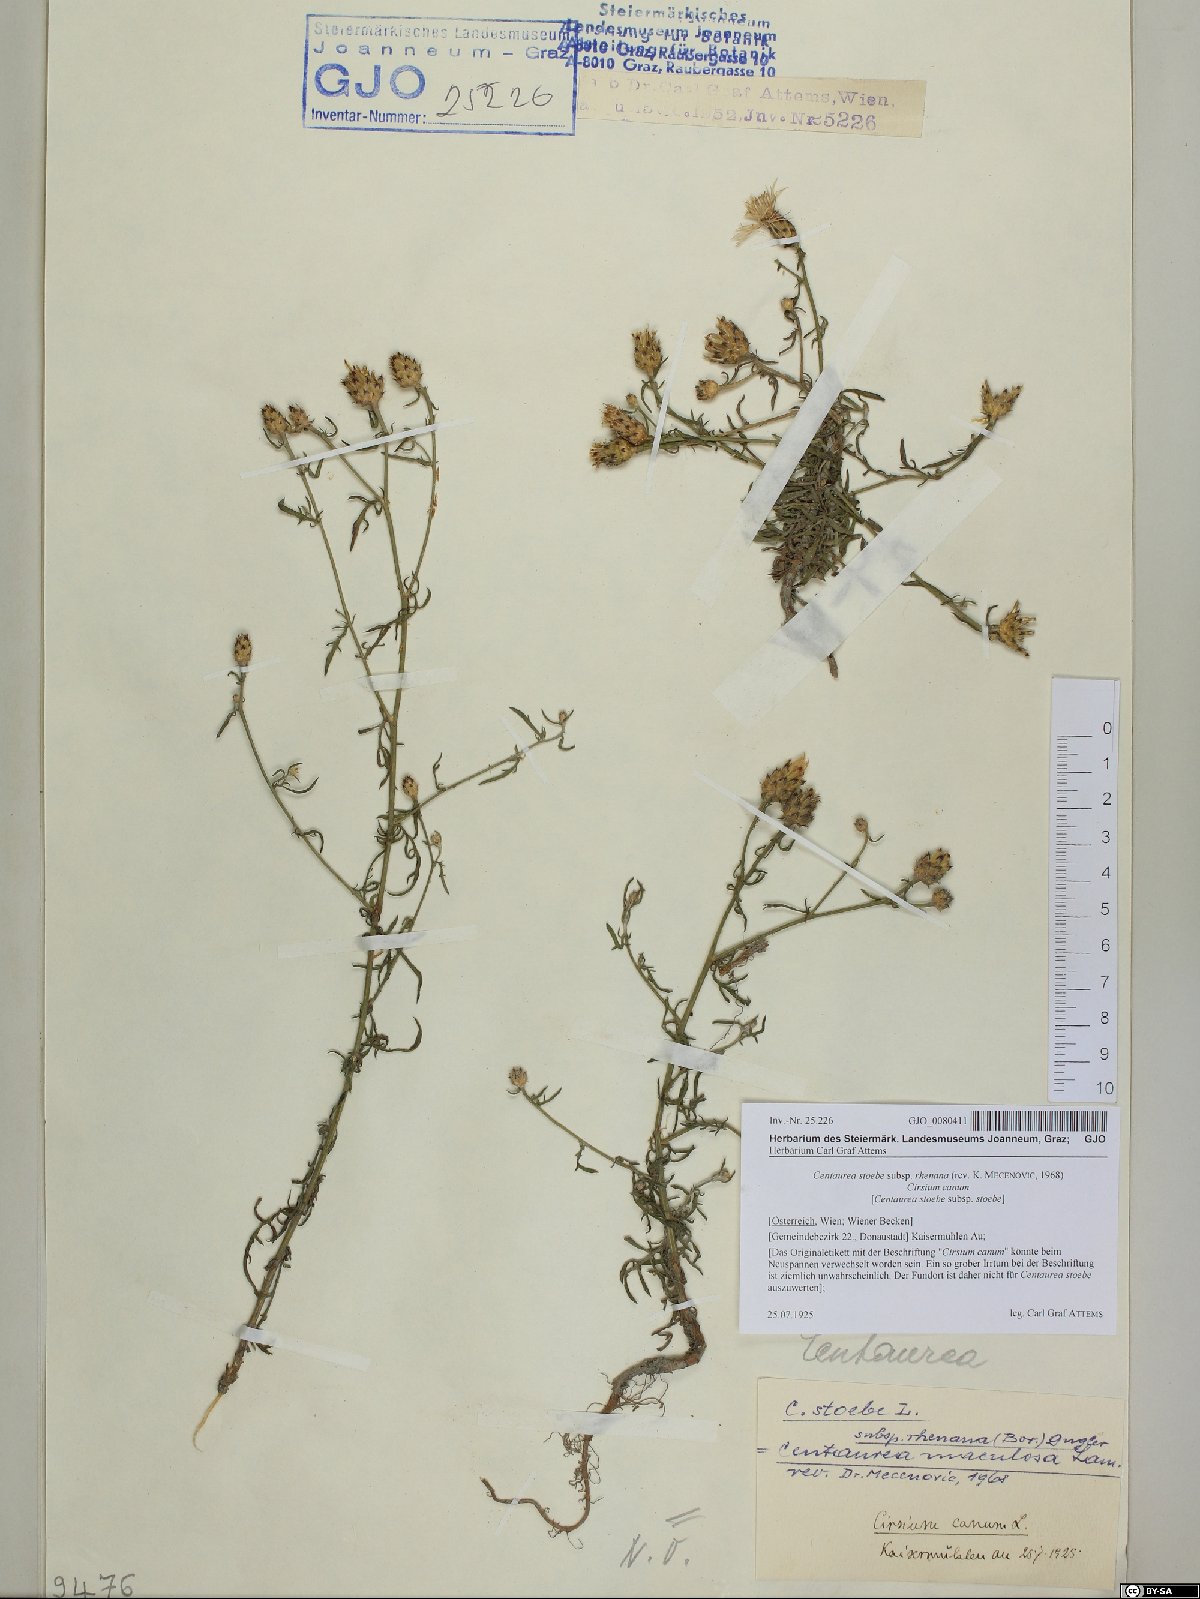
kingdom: Plantae
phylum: Tracheophyta
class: Magnoliopsida
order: Asterales
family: Asteraceae
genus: Centaurea
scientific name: Centaurea stoebe
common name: Spotted knapweed
